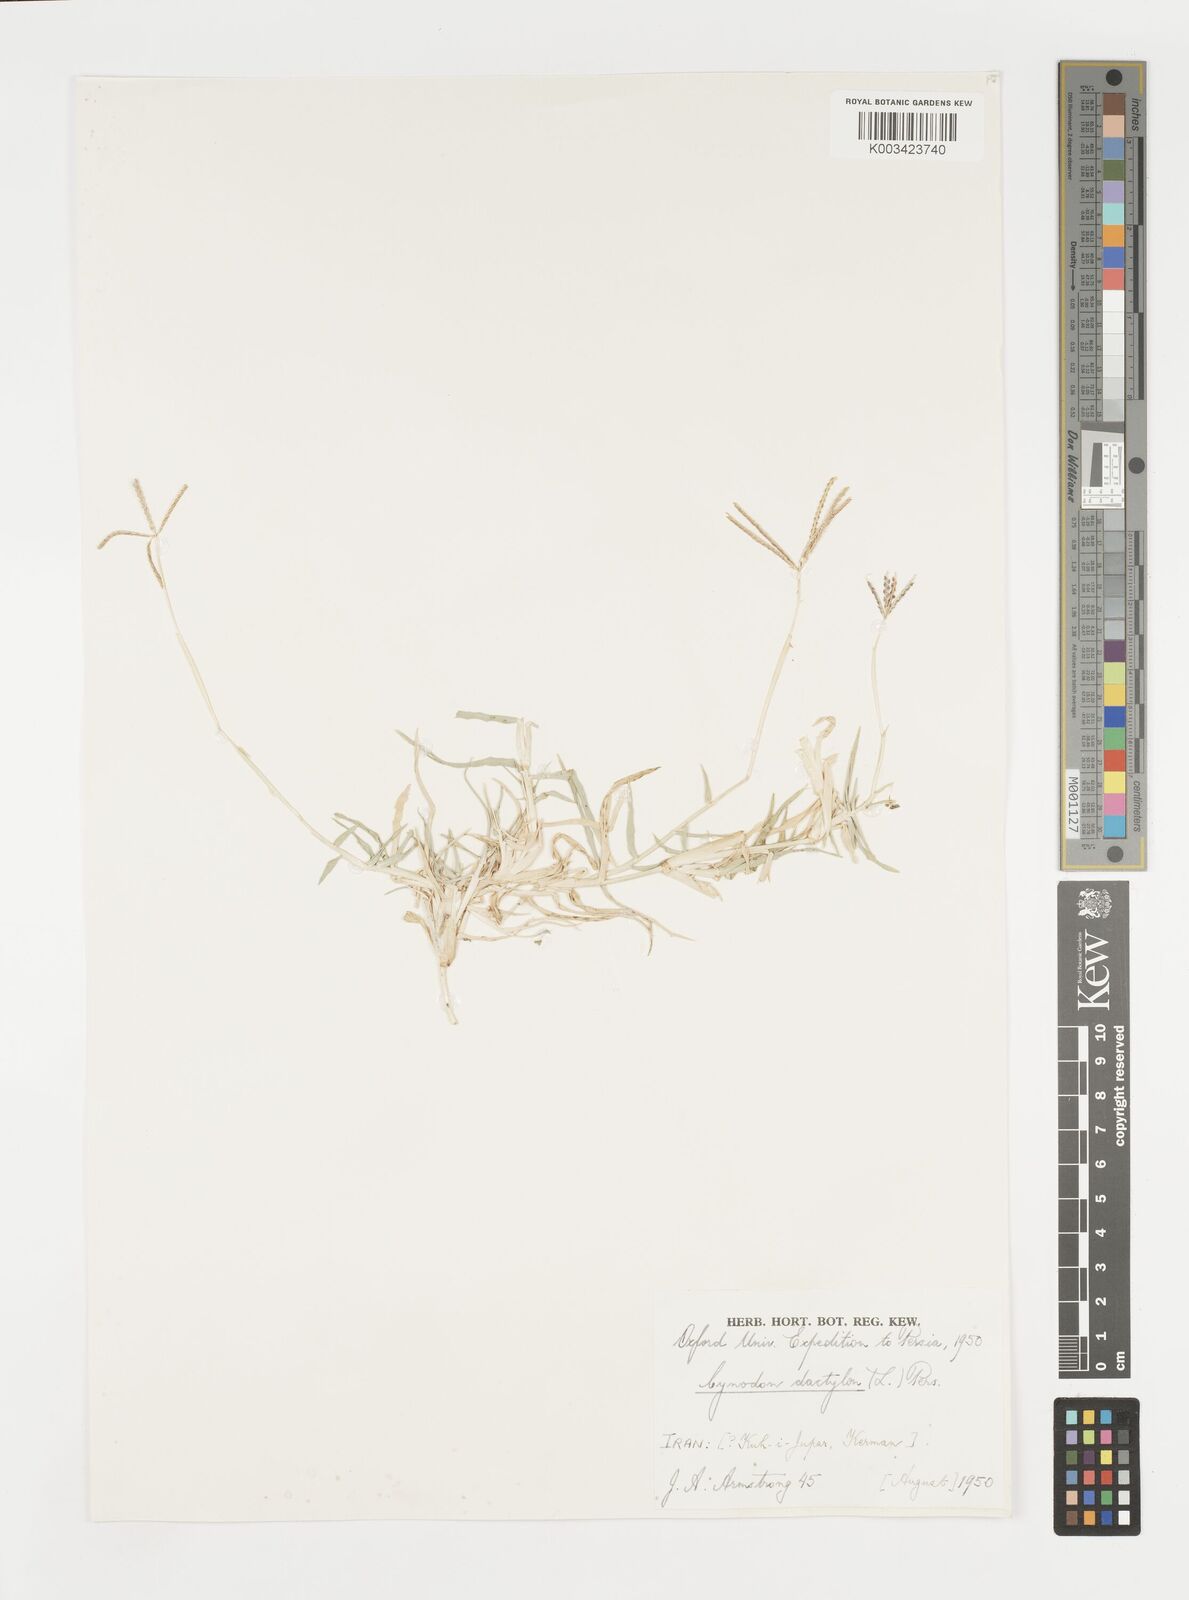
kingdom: Plantae
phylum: Tracheophyta
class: Liliopsida
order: Poales
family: Poaceae
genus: Cynodon
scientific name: Cynodon dactylon
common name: Bermuda grass
